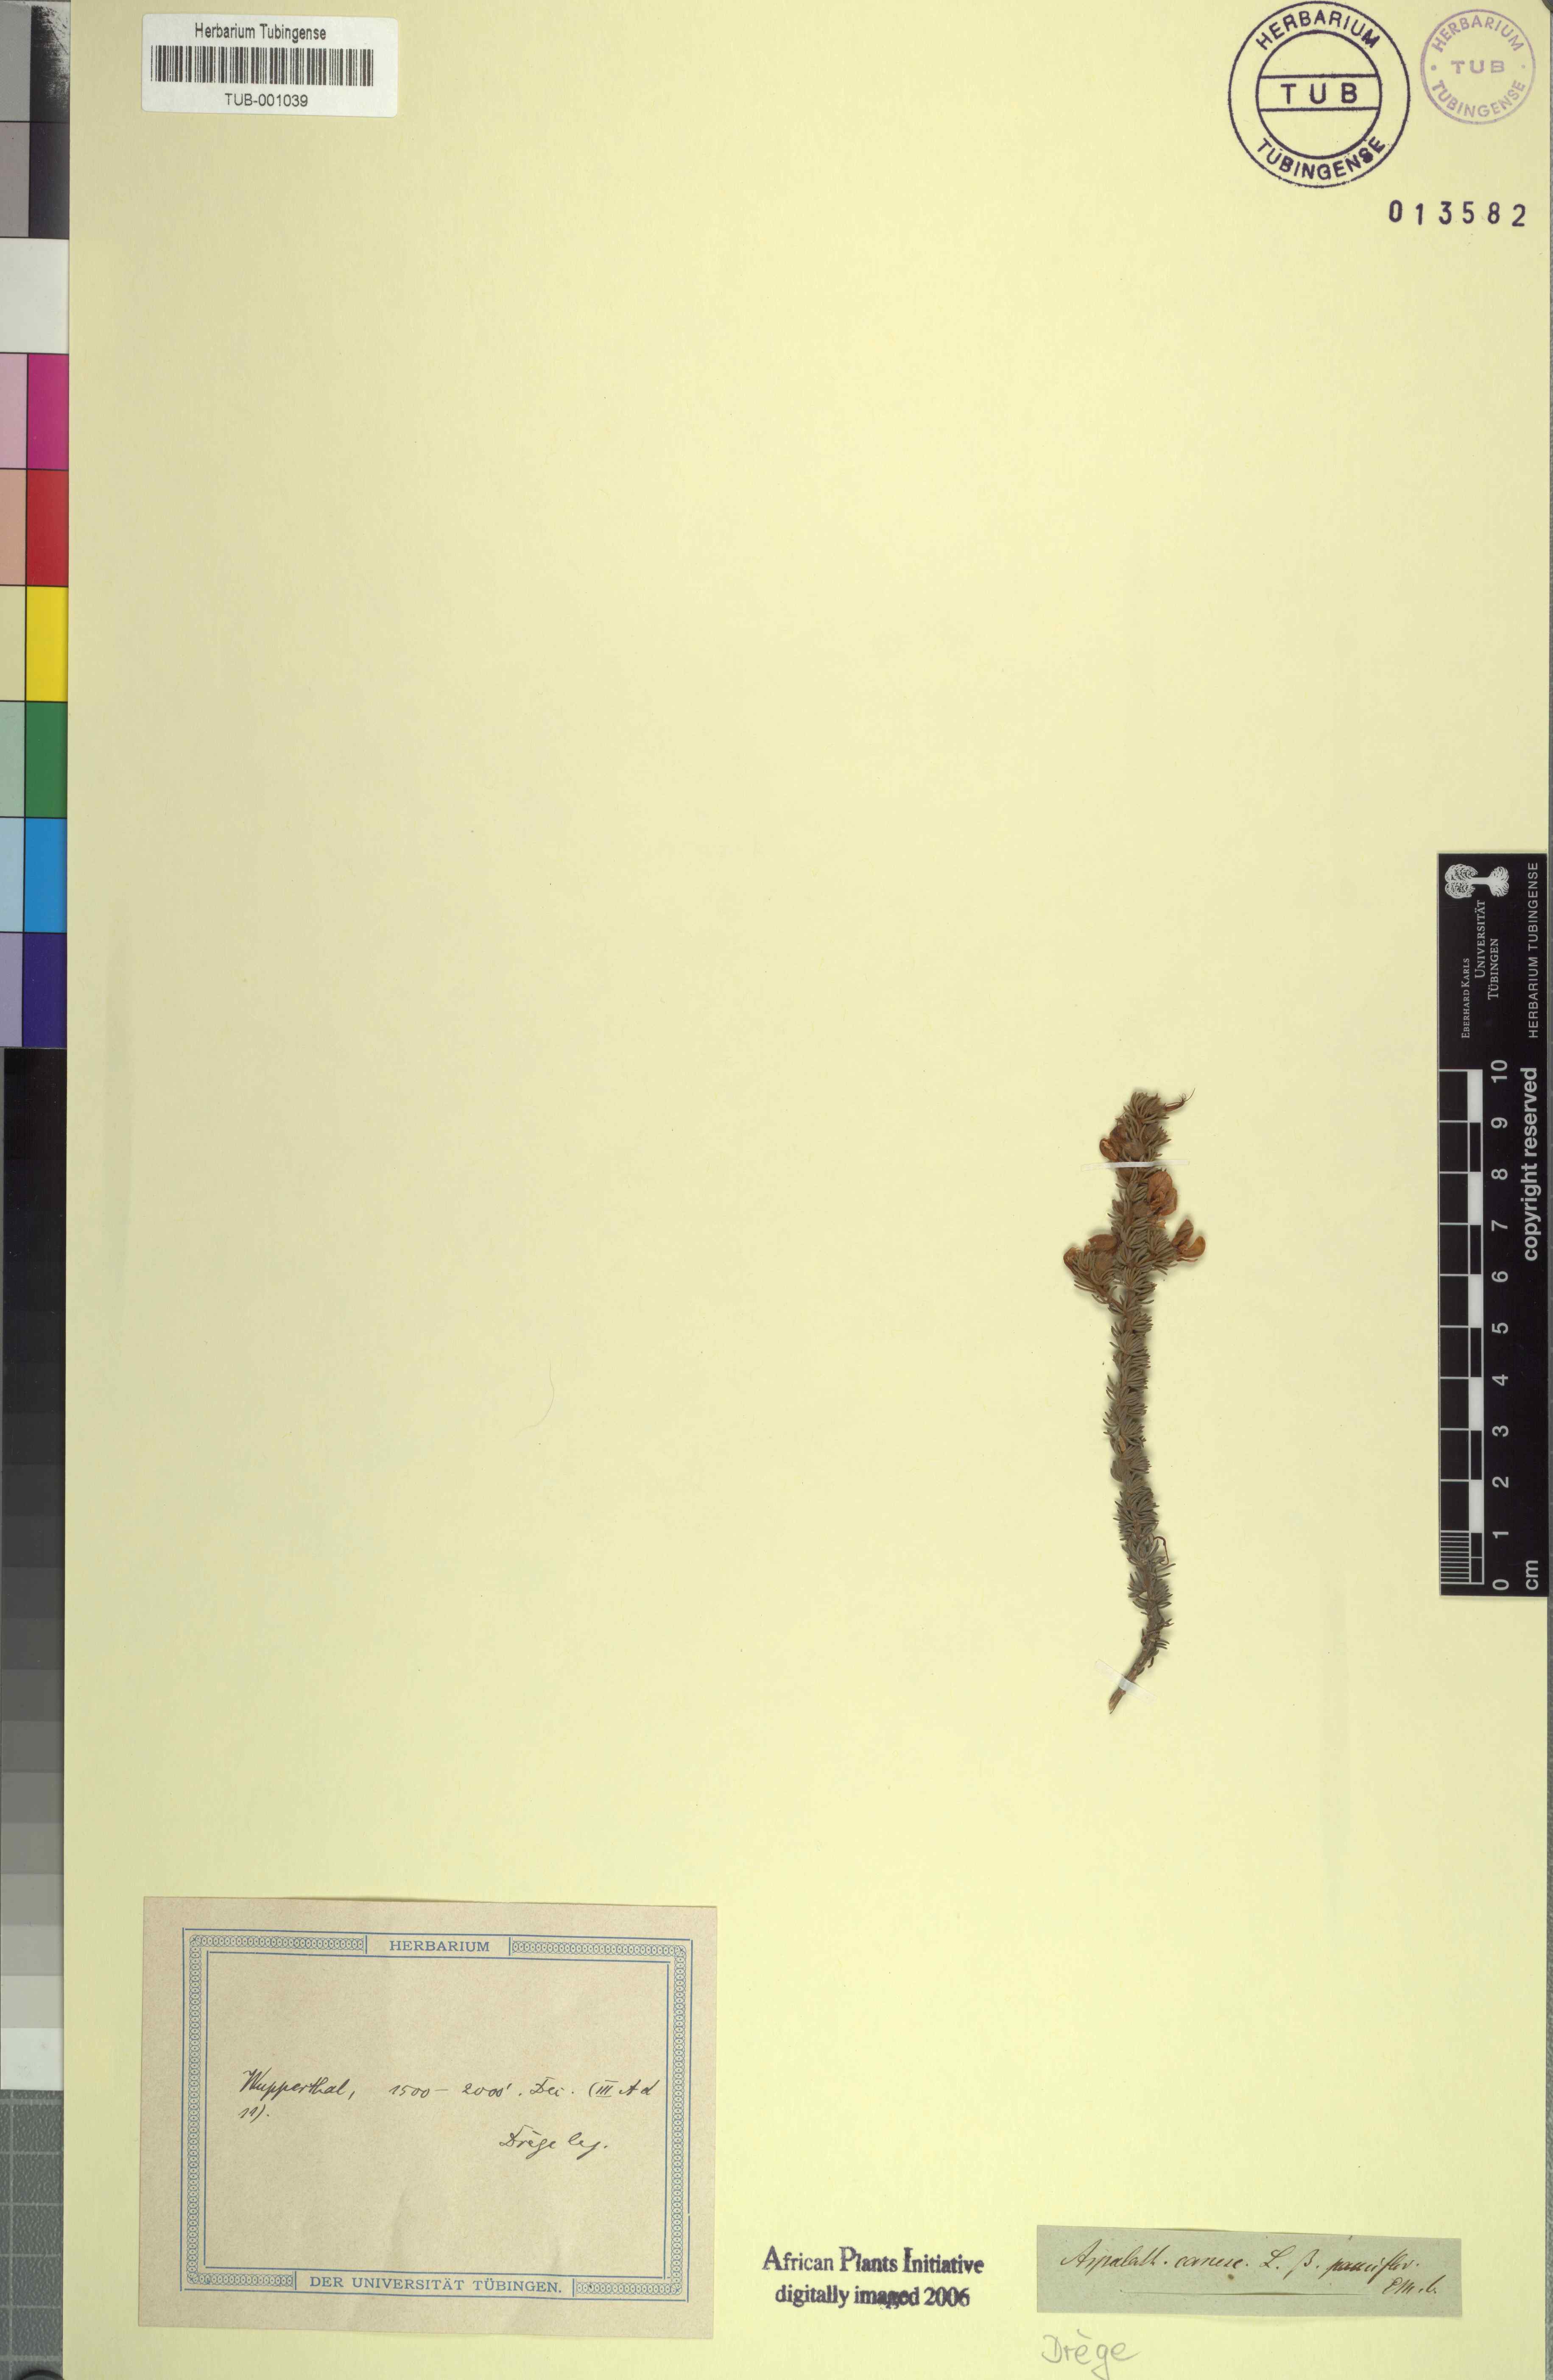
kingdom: Plantae
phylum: Tracheophyta
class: Magnoliopsida
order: Fabales
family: Fabaceae
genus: Aspalathus
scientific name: Aspalathus laricifolia
